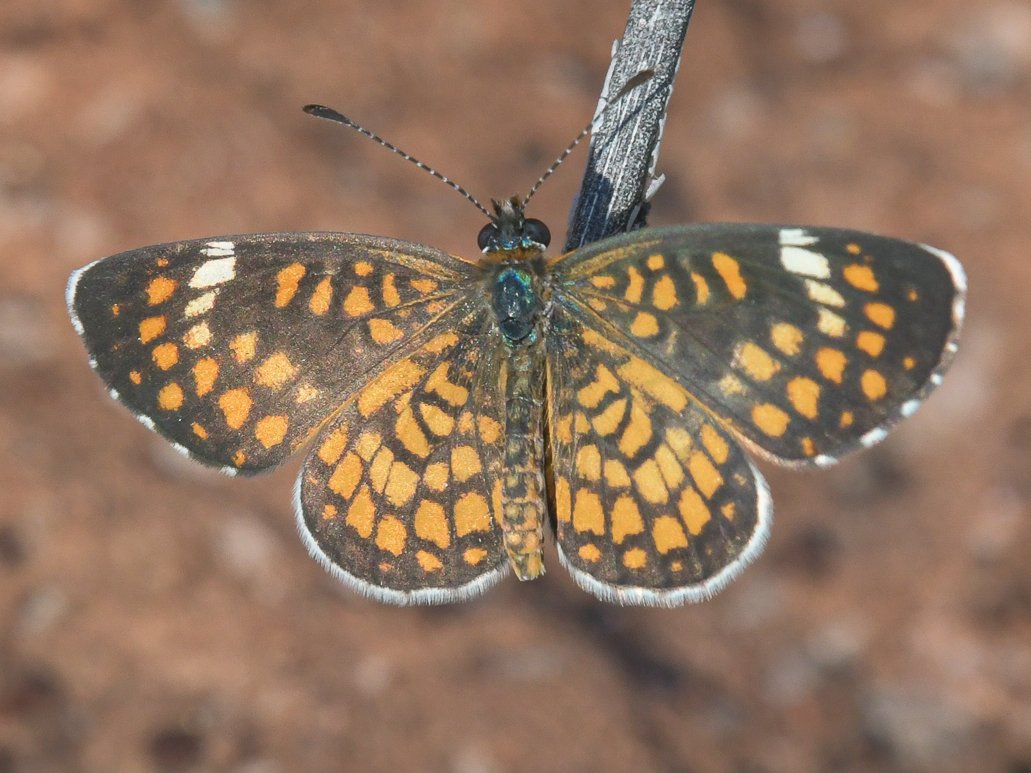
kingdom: Animalia
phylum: Arthropoda
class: Insecta
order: Lepidoptera
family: Nymphalidae
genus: Dymasia
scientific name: Dymasia dymas
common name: Tiny Checkerspot
